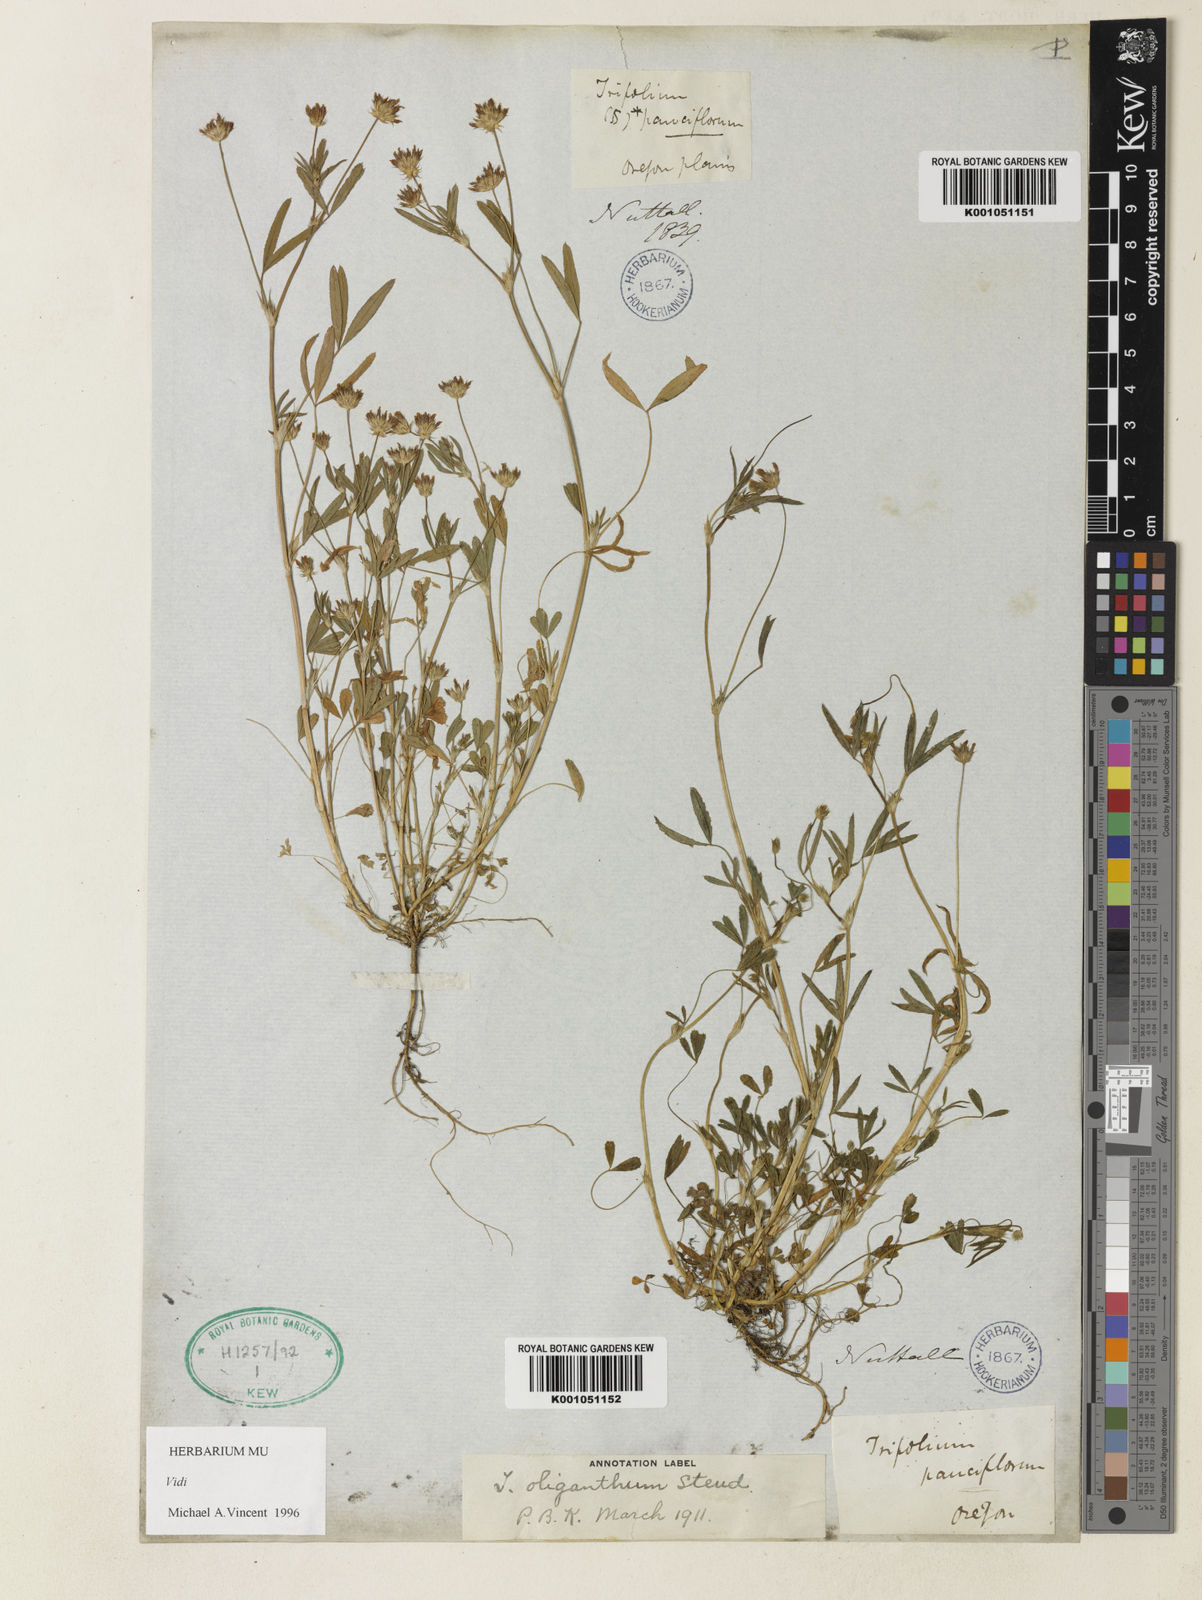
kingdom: Plantae
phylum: Tracheophyta
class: Magnoliopsida
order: Fabales
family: Fabaceae
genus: Trifolium
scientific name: Trifolium oliganthum
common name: Few-flower clover
